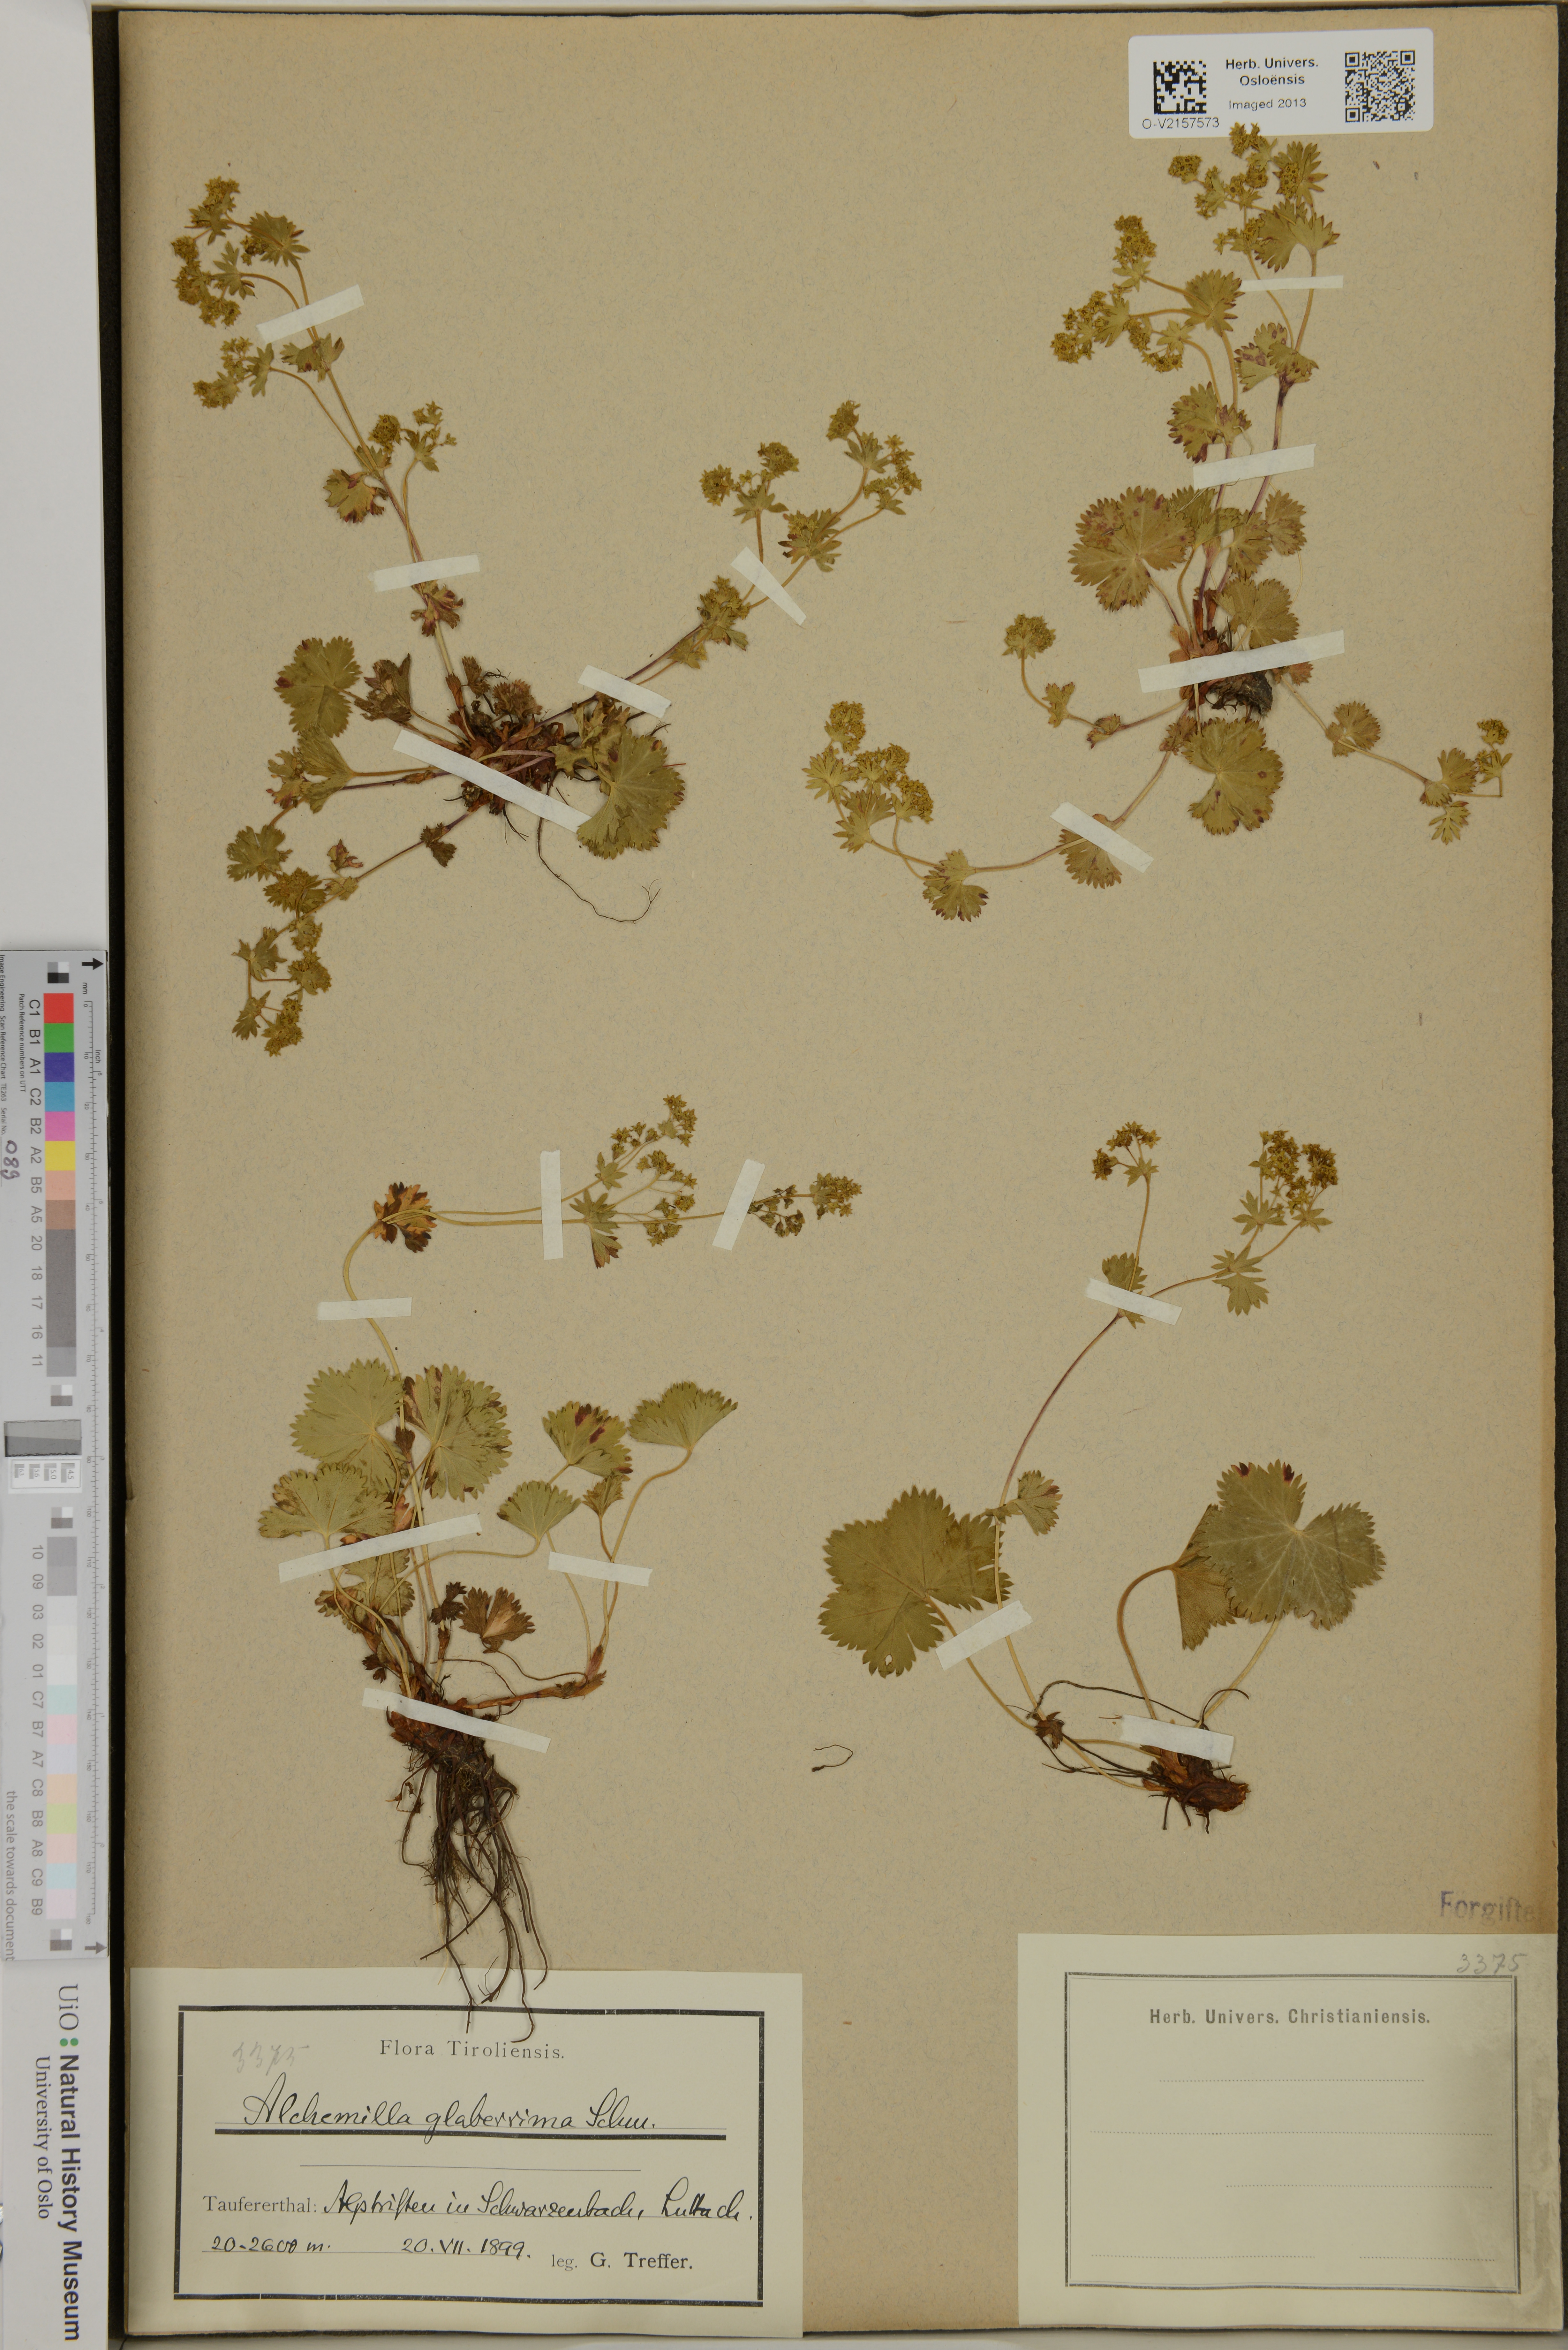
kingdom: Plantae
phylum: Tracheophyta
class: Magnoliopsida
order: Rosales
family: Rosaceae
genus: Alchemilla
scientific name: Alchemilla glaberrima
